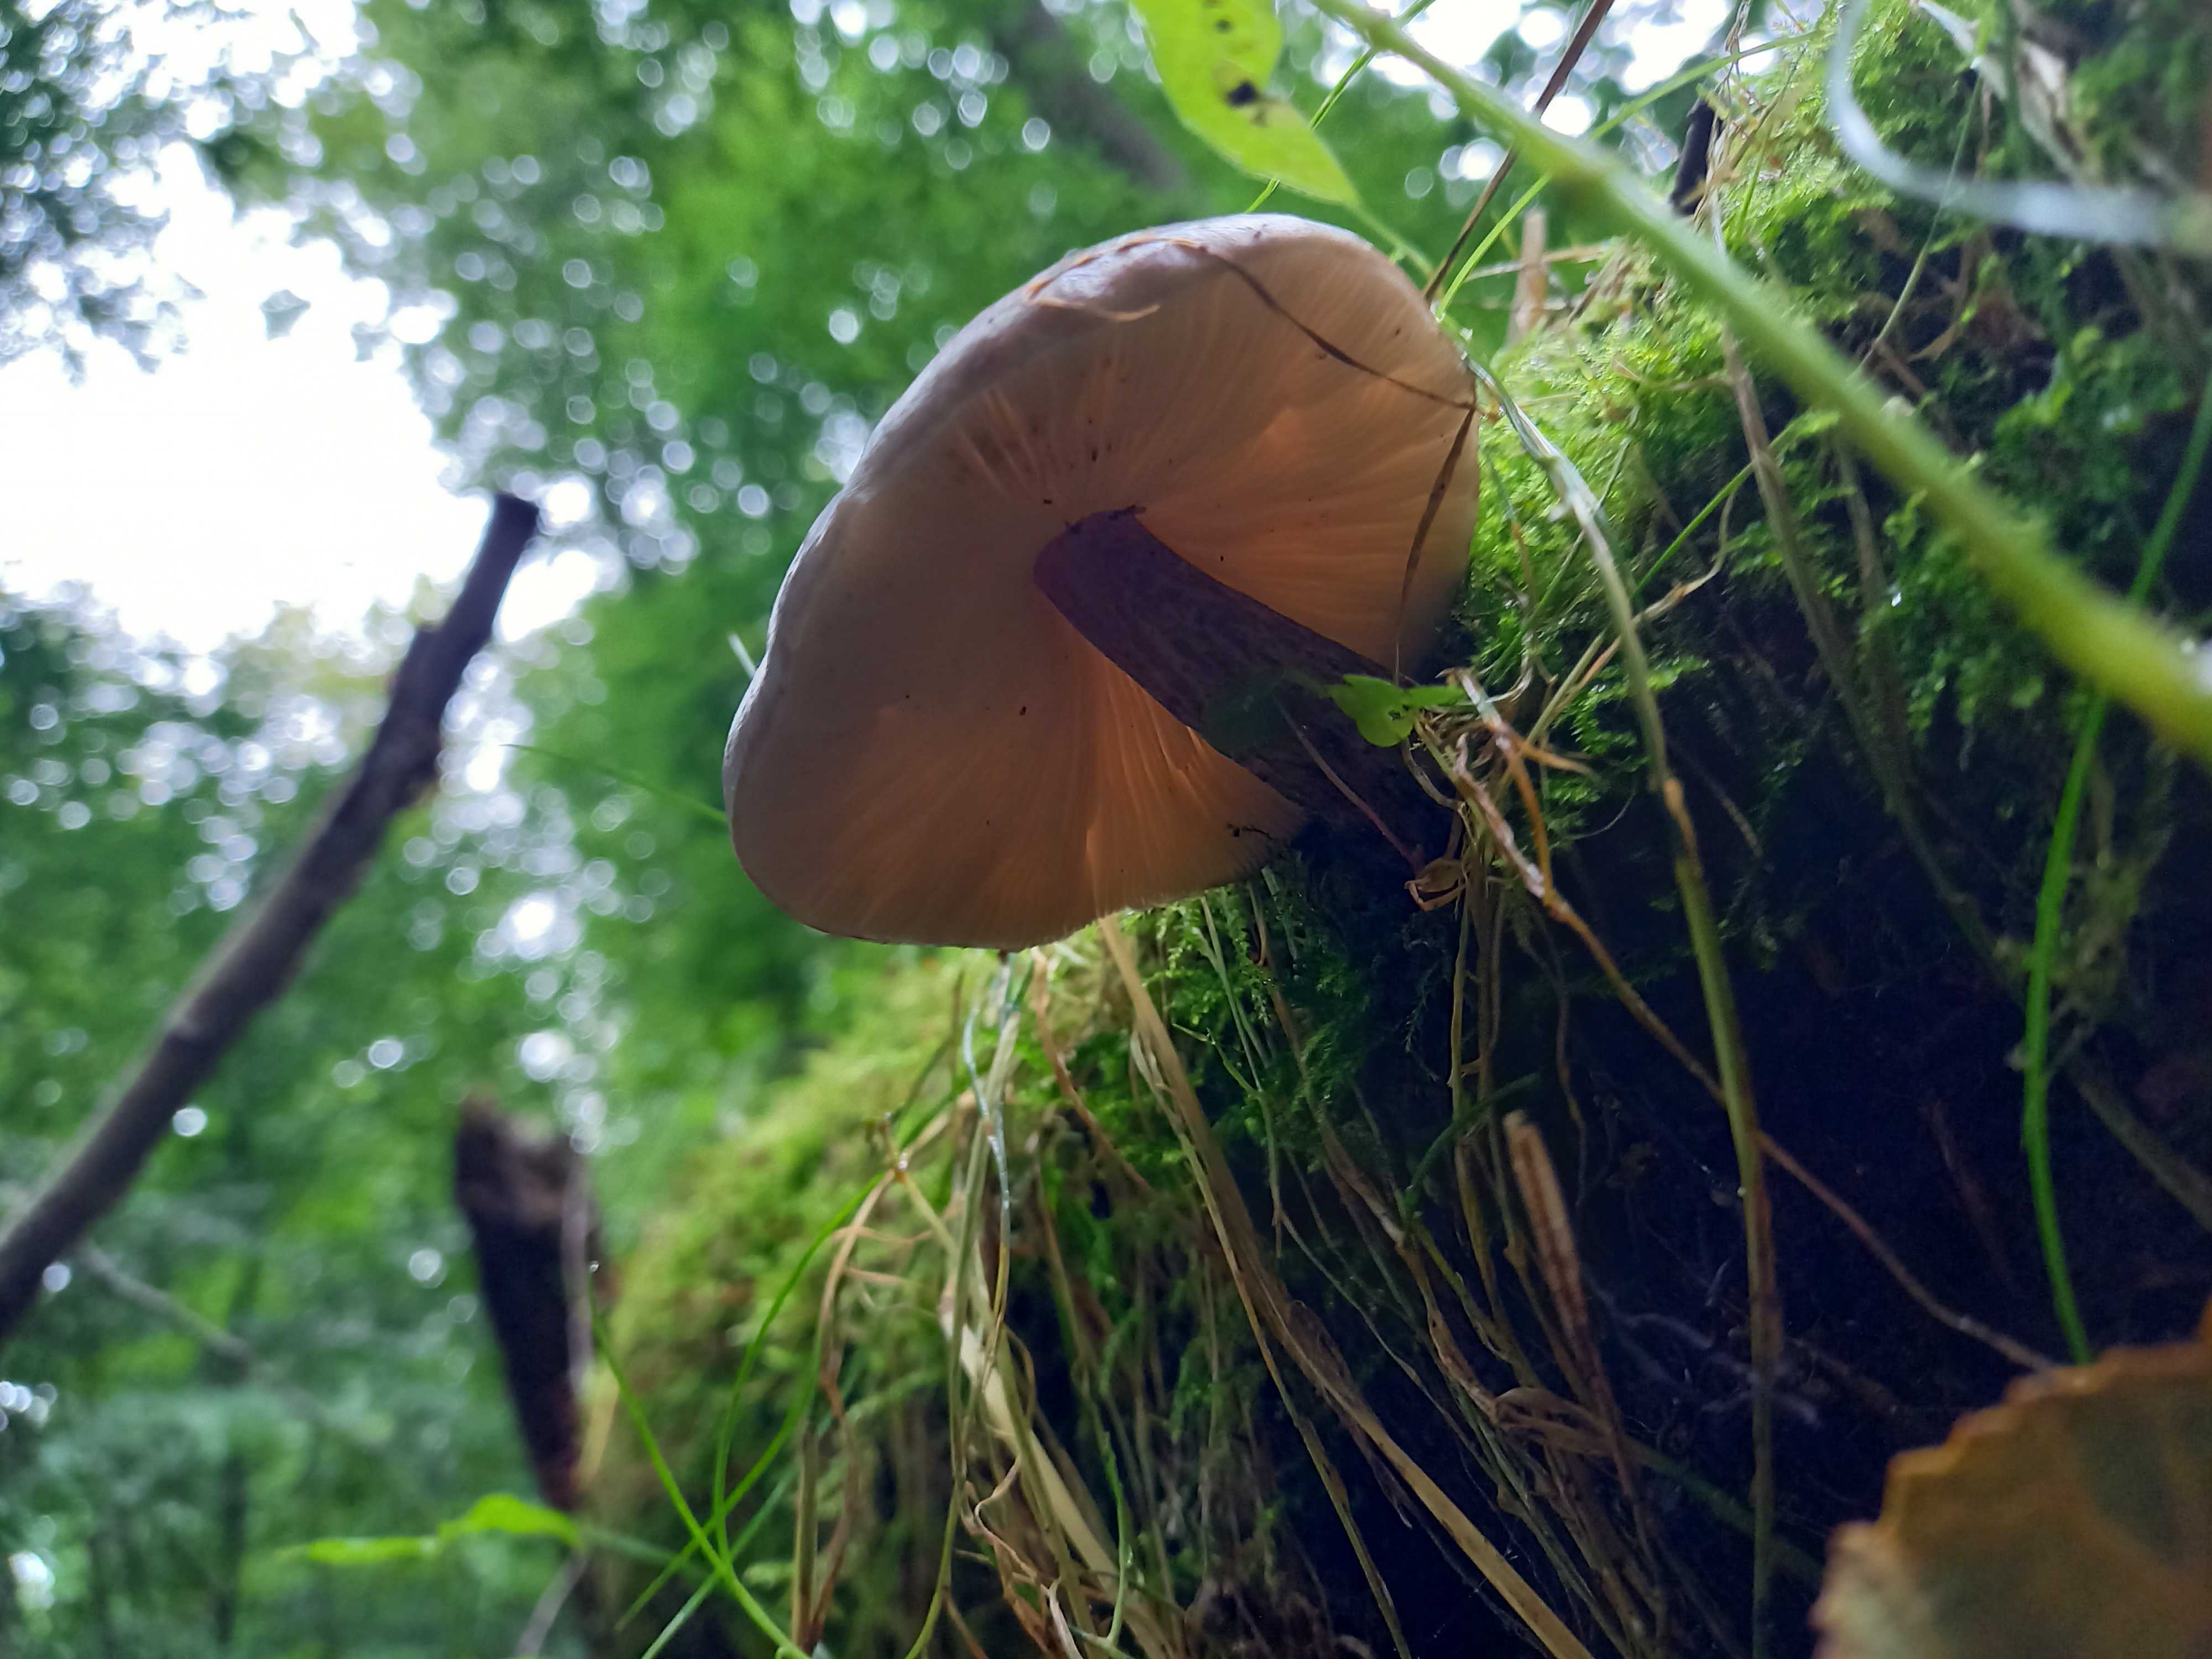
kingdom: Fungi
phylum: Basidiomycota
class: Agaricomycetes
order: Agaricales
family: Pluteaceae
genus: Pluteus
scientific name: Pluteus
